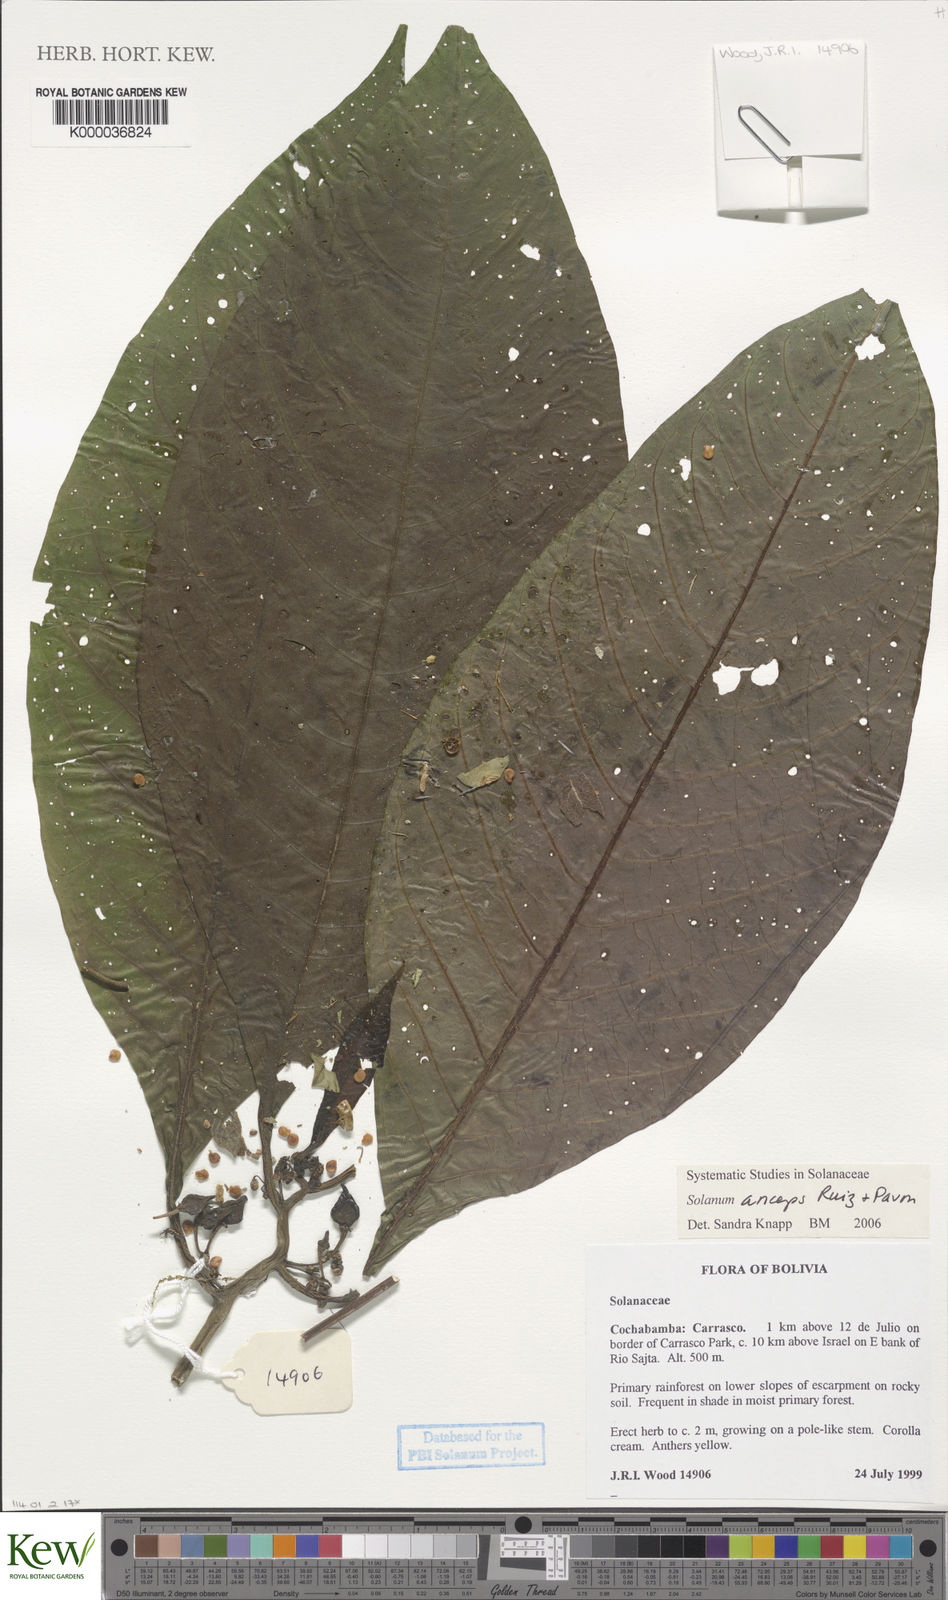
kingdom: Plantae
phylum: Tracheophyta
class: Magnoliopsida
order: Solanales
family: Solanaceae
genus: Solanum
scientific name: Solanum anceps
